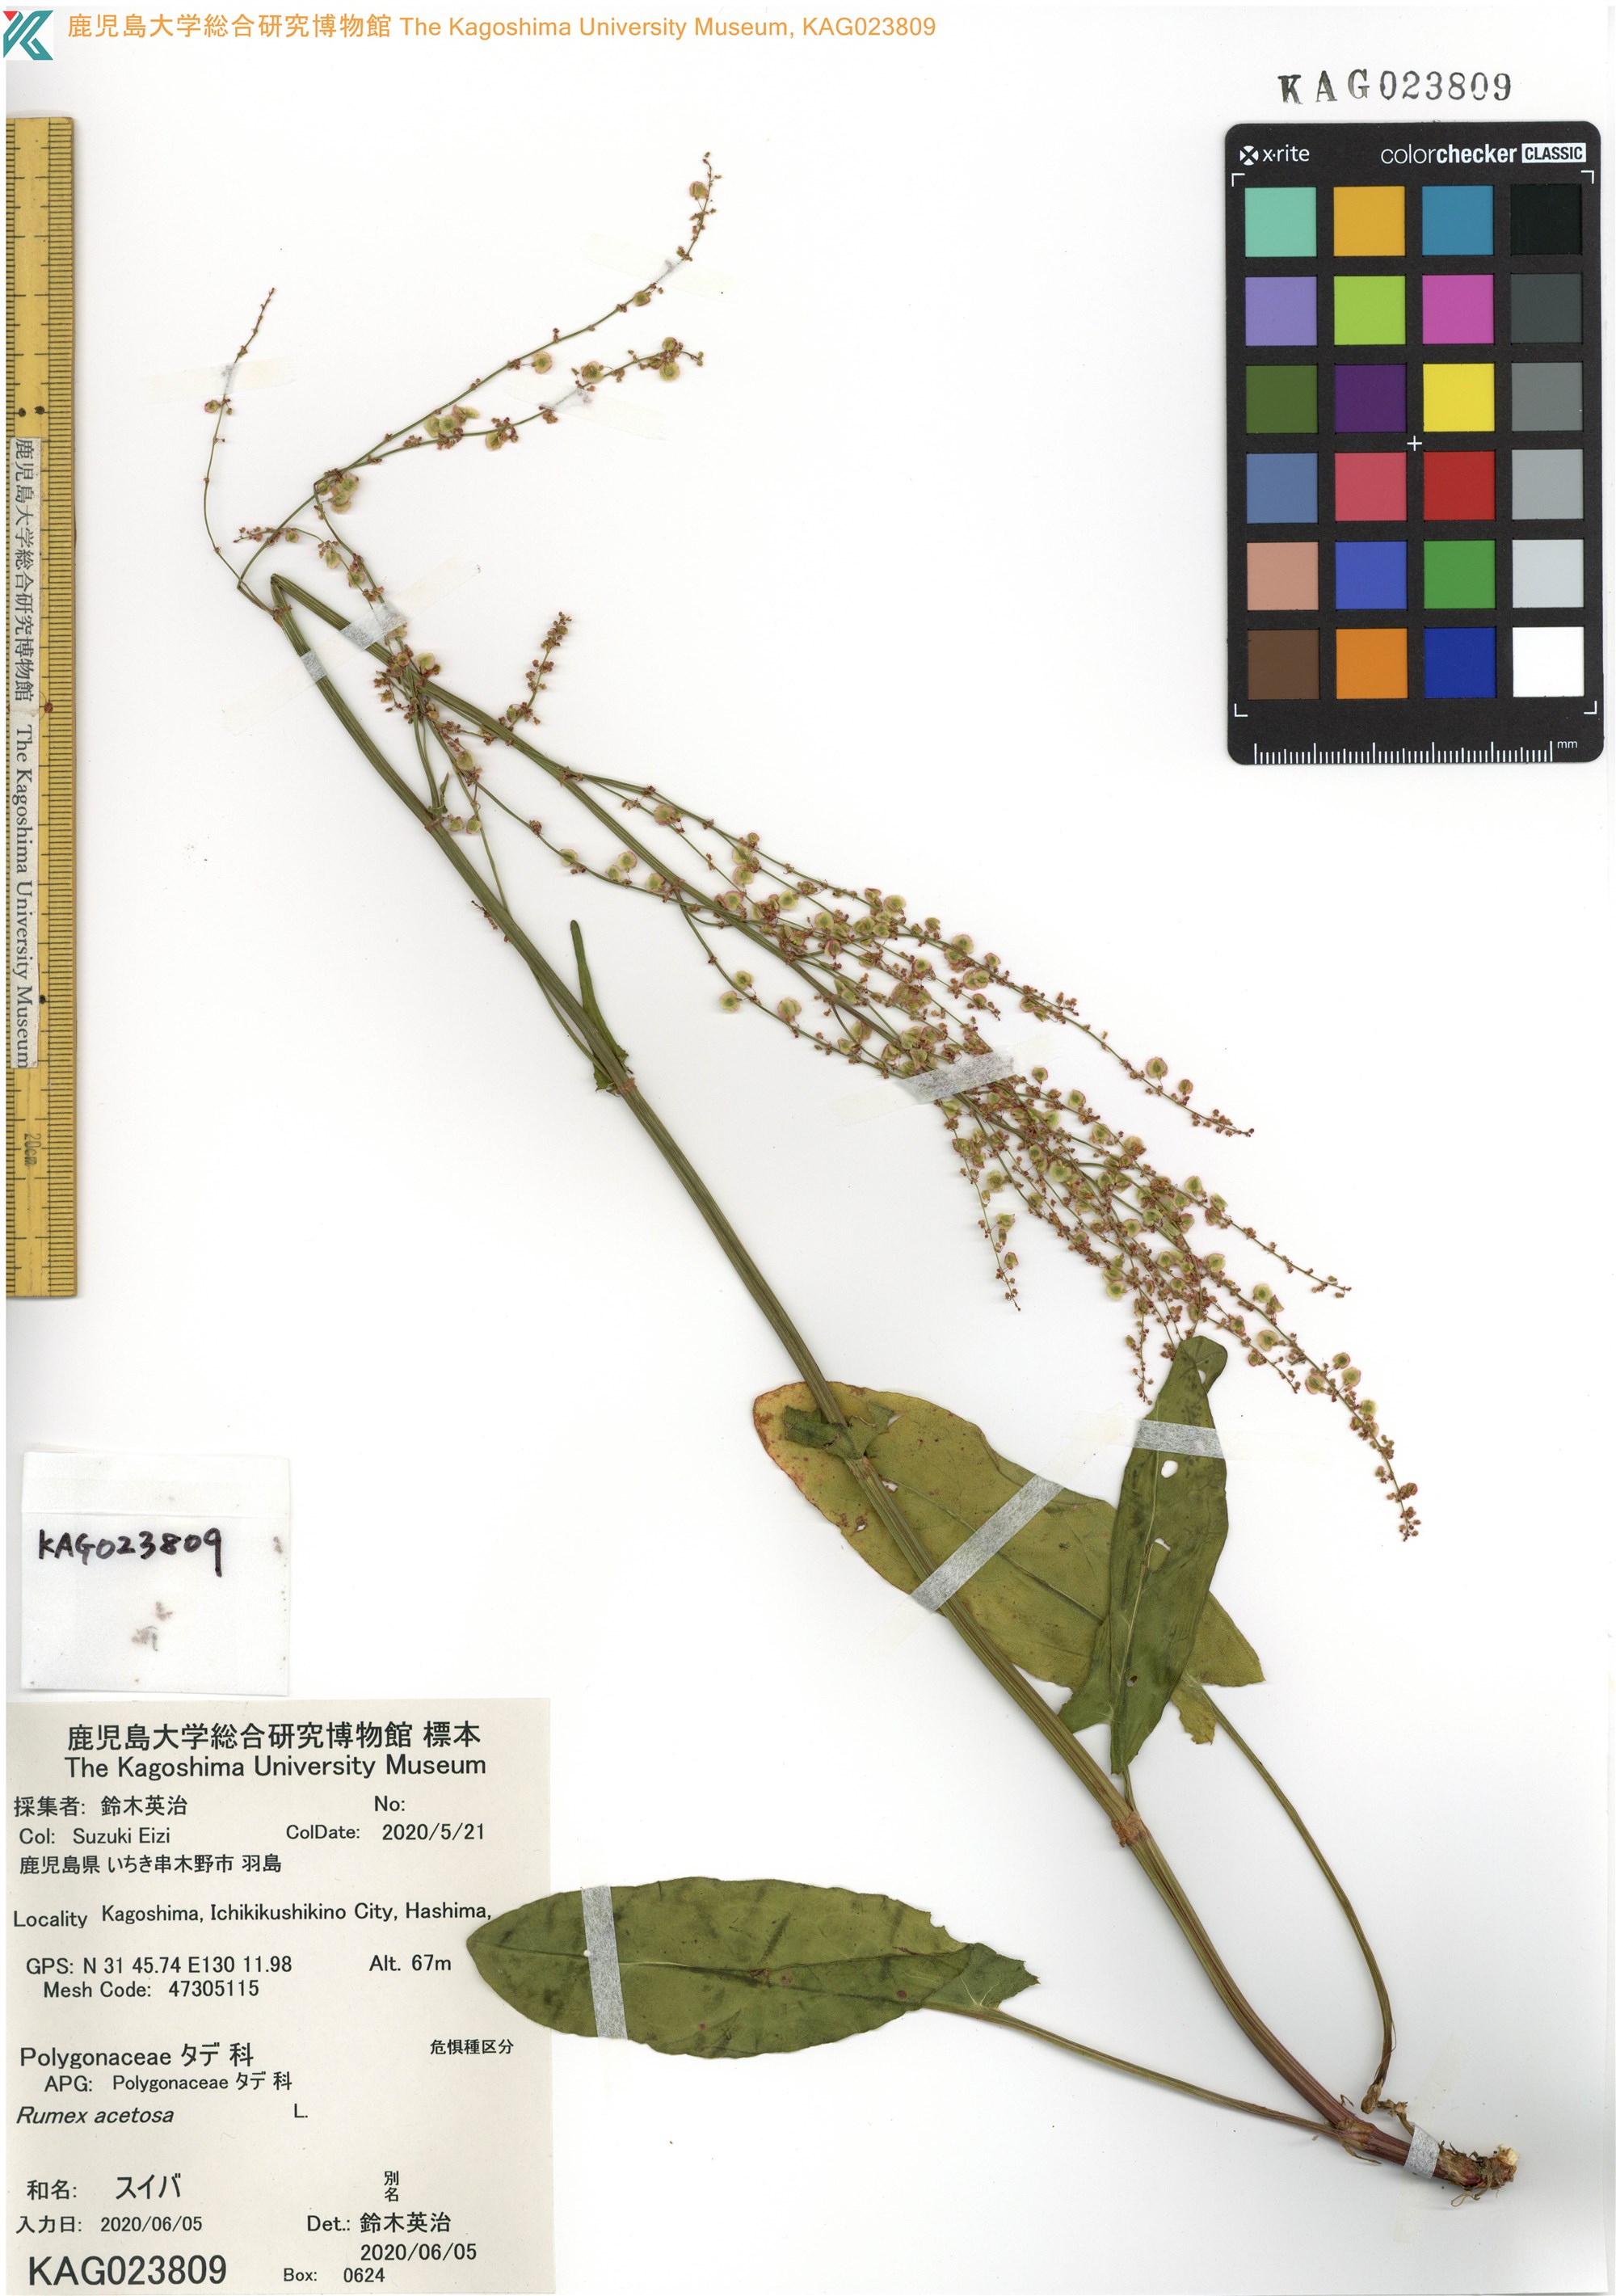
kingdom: Plantae
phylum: Tracheophyta
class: Magnoliopsida
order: Caryophyllales
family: Polygonaceae
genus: Rumex
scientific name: Rumex acetosa
